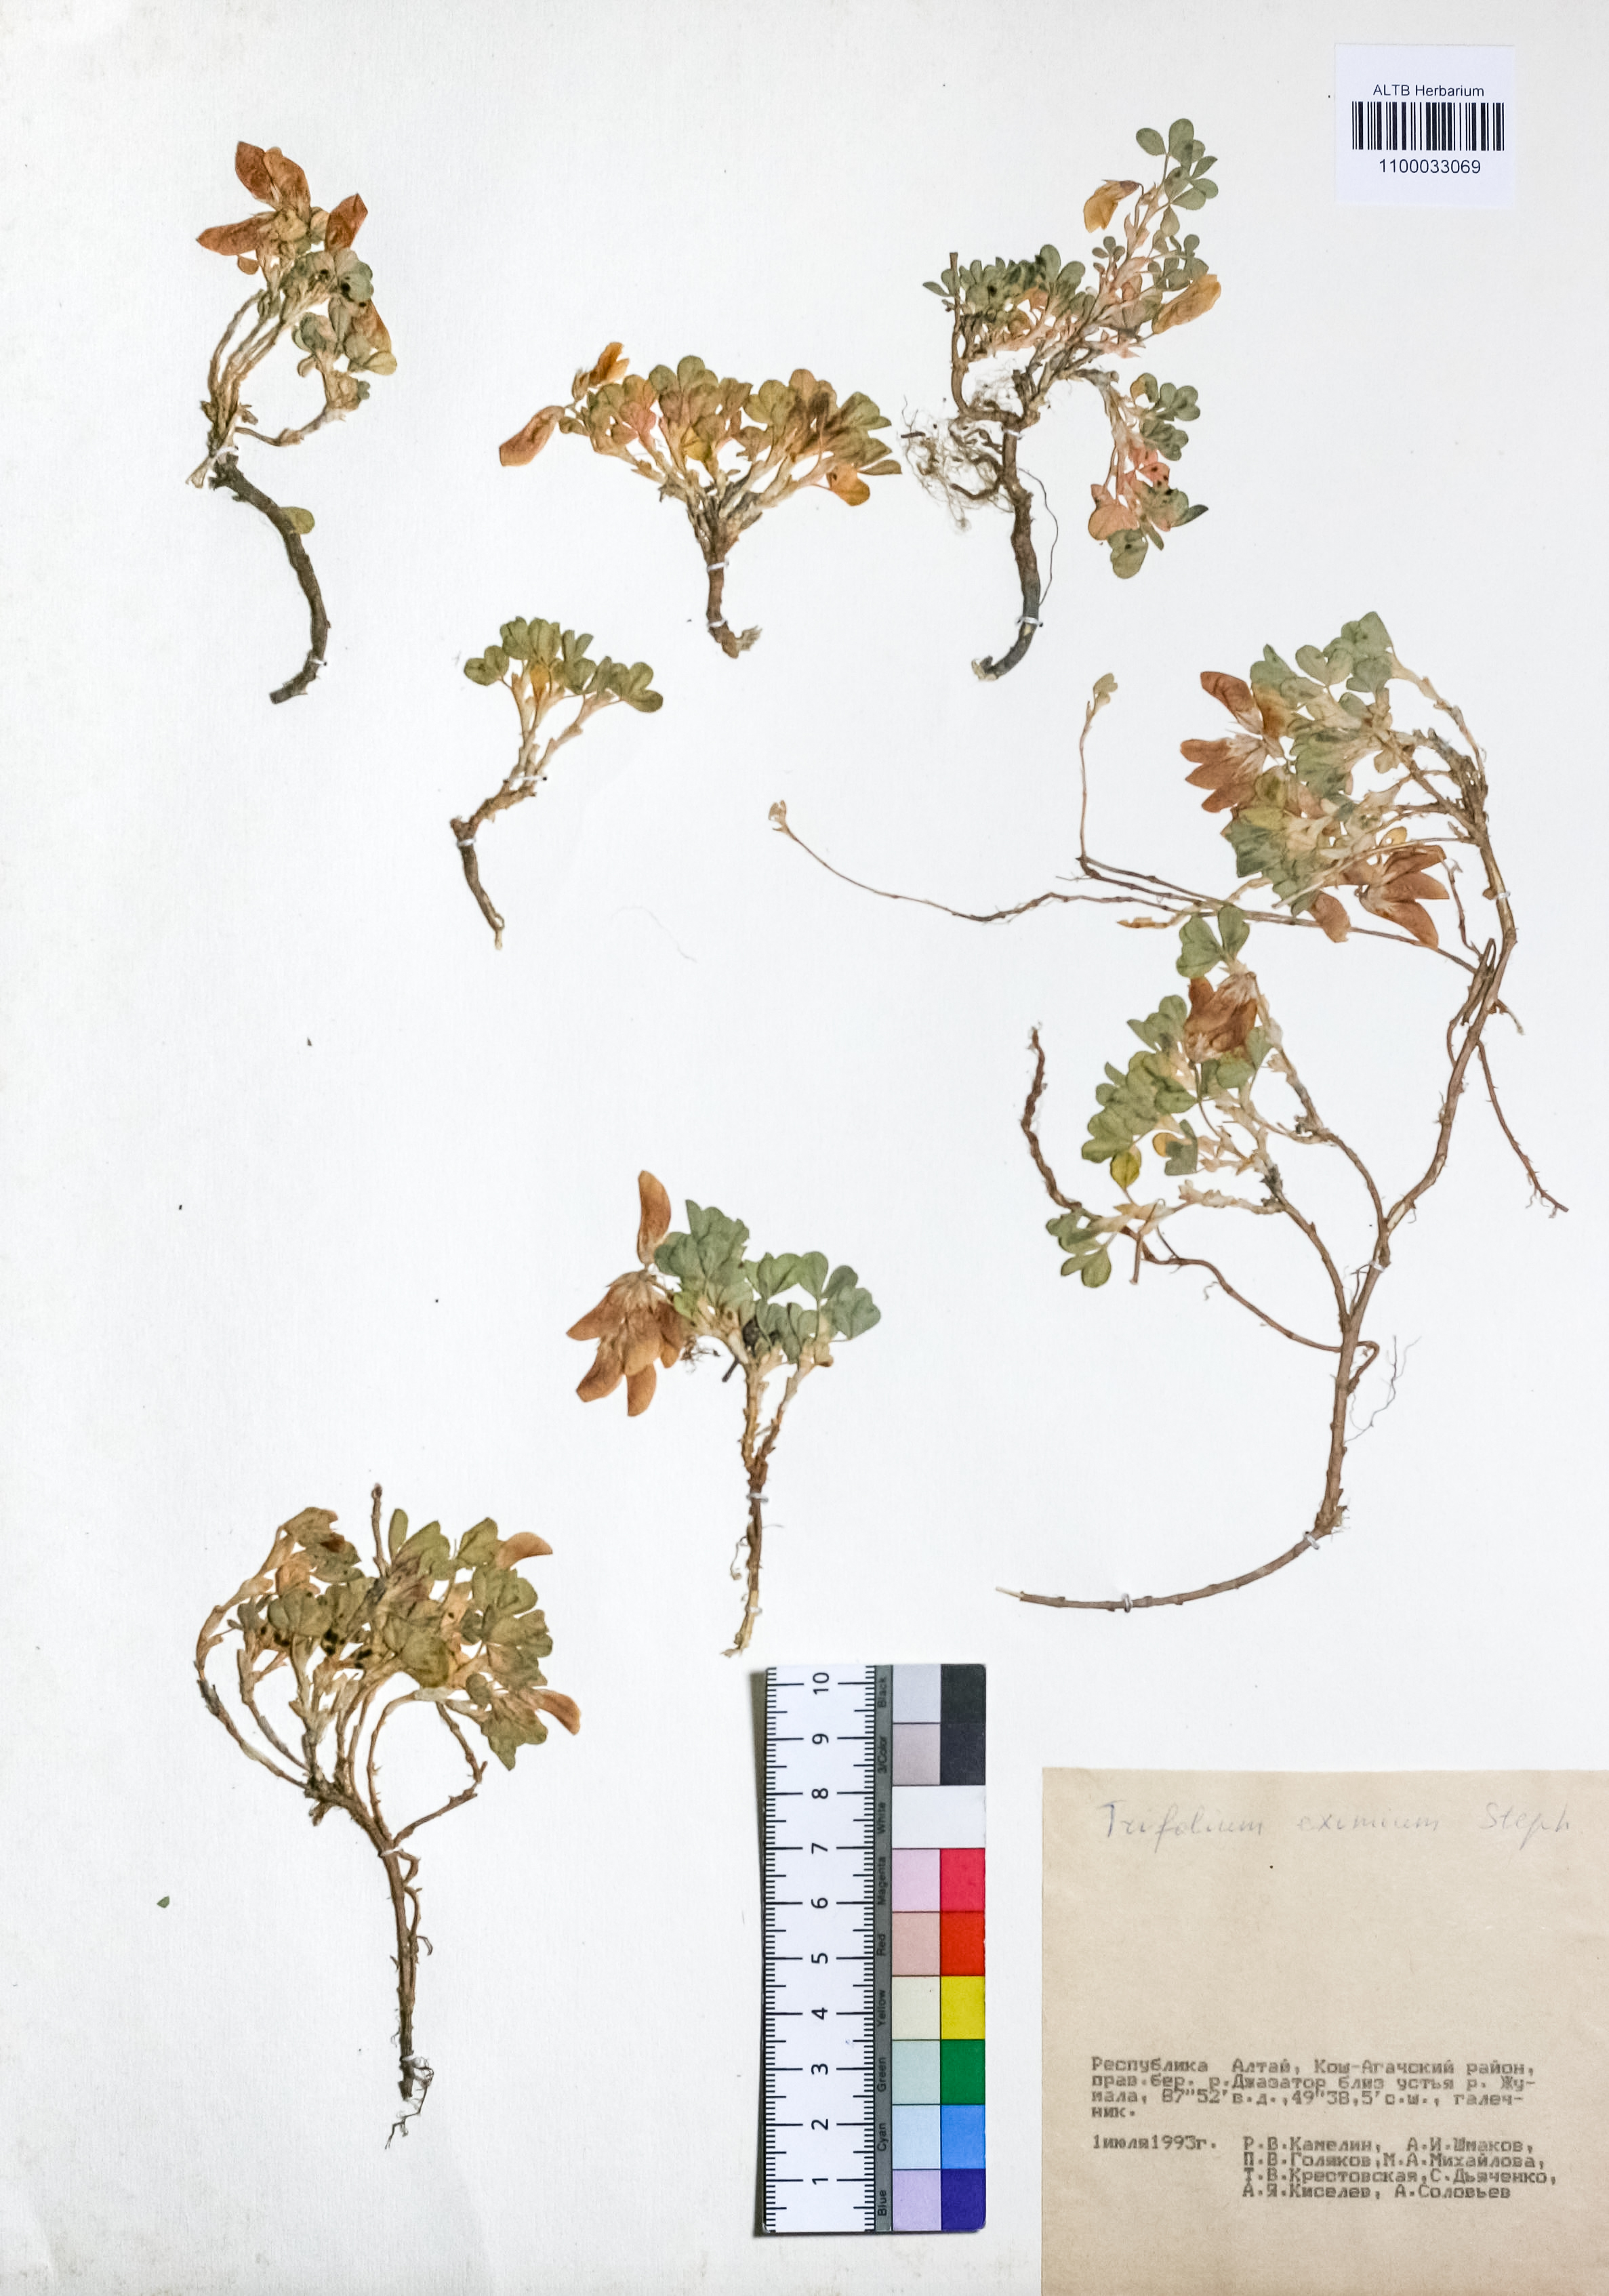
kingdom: Plantae
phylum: Tracheophyta
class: Magnoliopsida
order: Fabales
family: Fabaceae
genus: Trifolium
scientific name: Trifolium eximium
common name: Excellent clover
